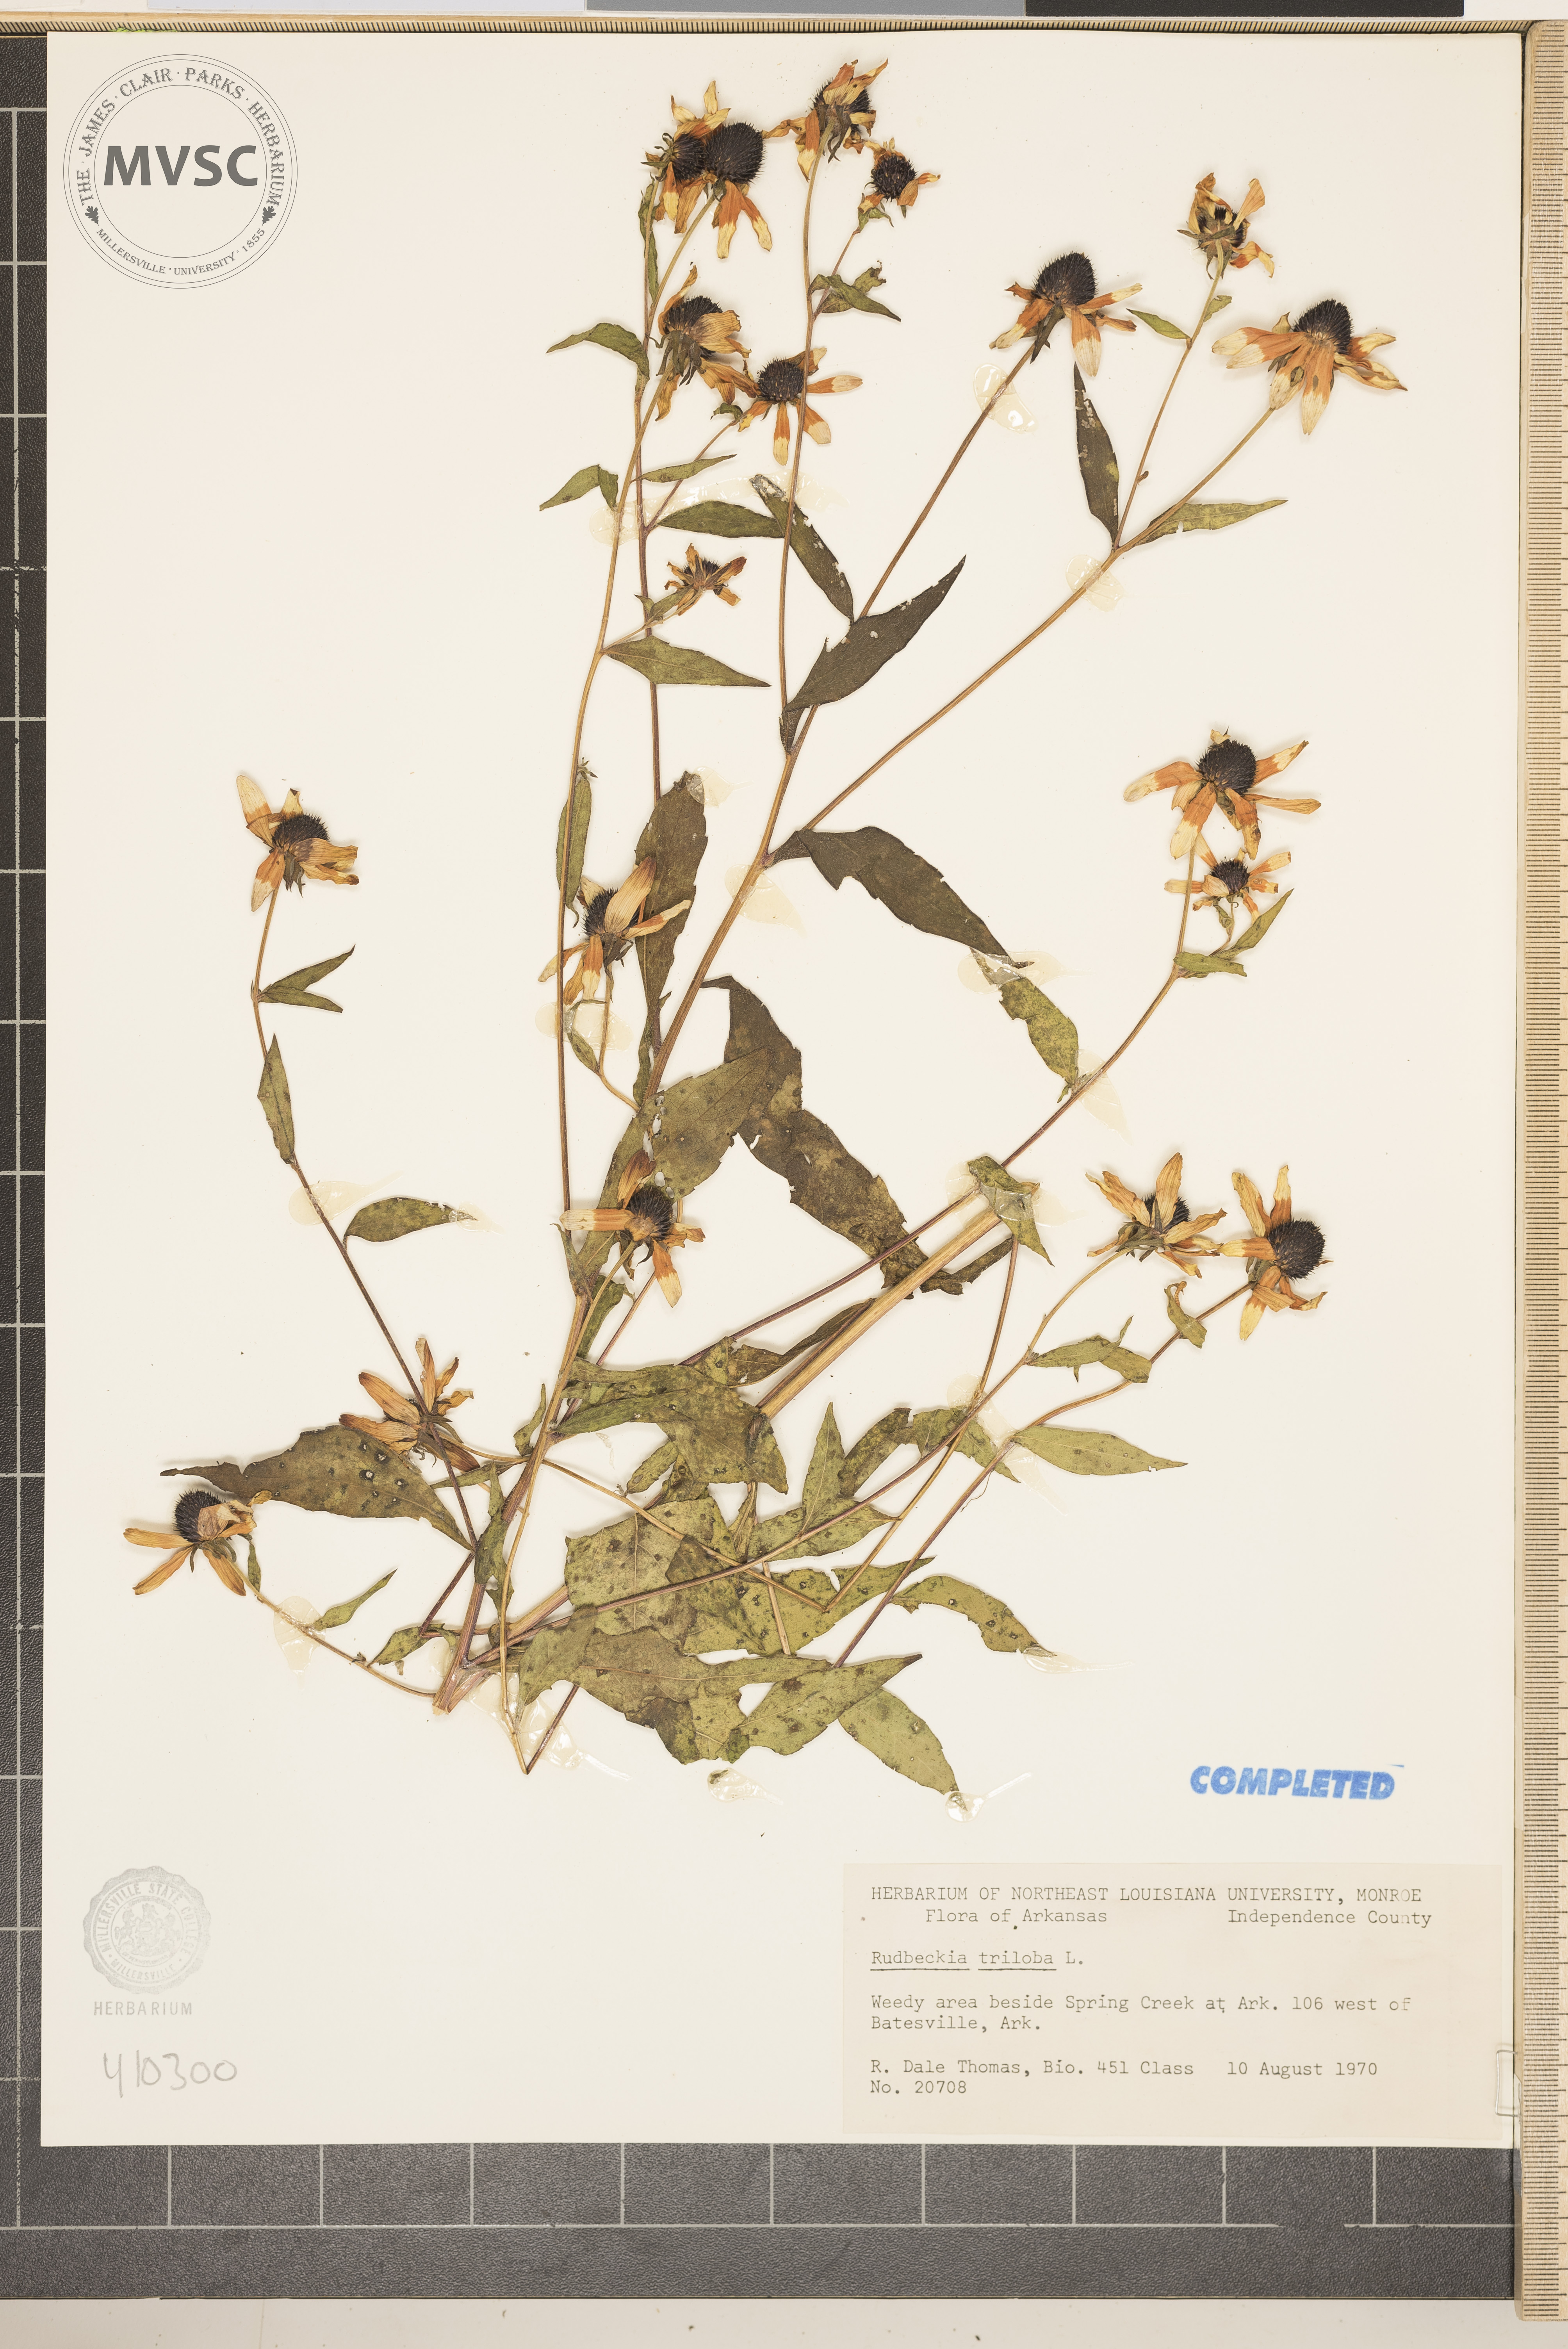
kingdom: Plantae
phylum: Tracheophyta
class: Magnoliopsida
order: Asterales
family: Asteraceae
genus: Rudbeckia
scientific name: Rudbeckia triloba
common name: Thin-leaved coneflower
